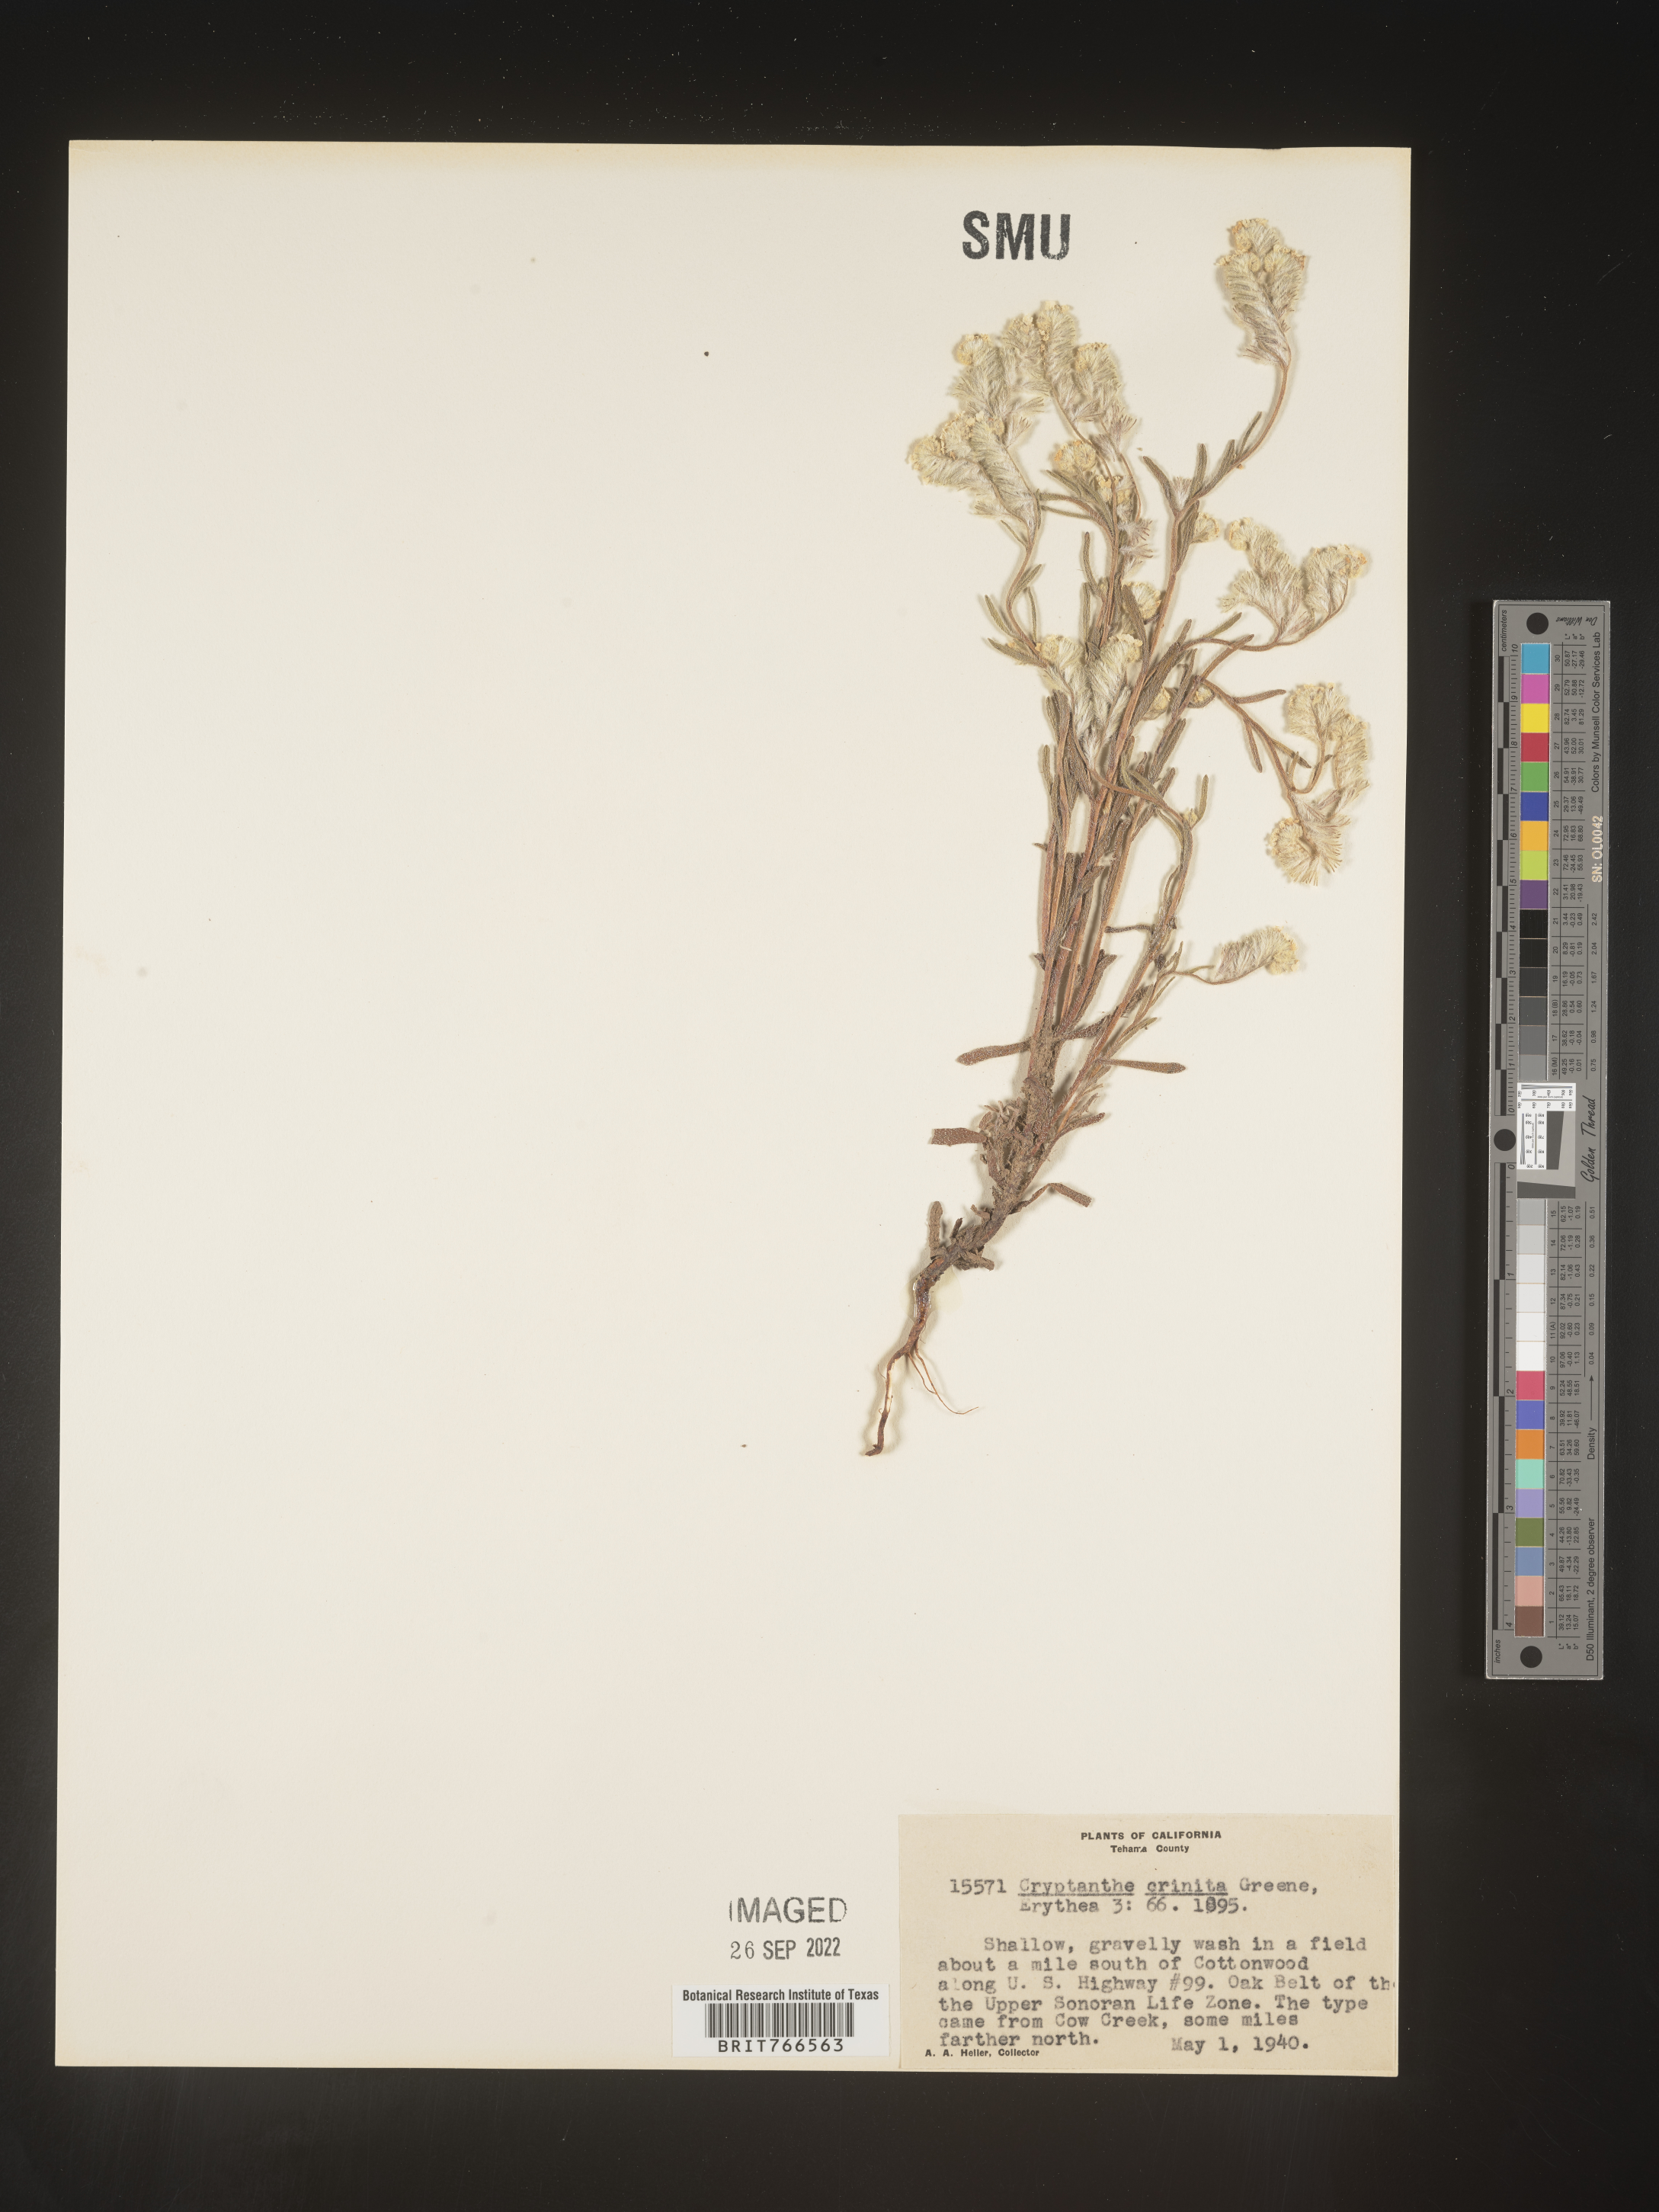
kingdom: Plantae
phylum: Tracheophyta
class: Magnoliopsida
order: Boraginales
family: Boraginaceae
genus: Cryptantha
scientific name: Cryptantha
